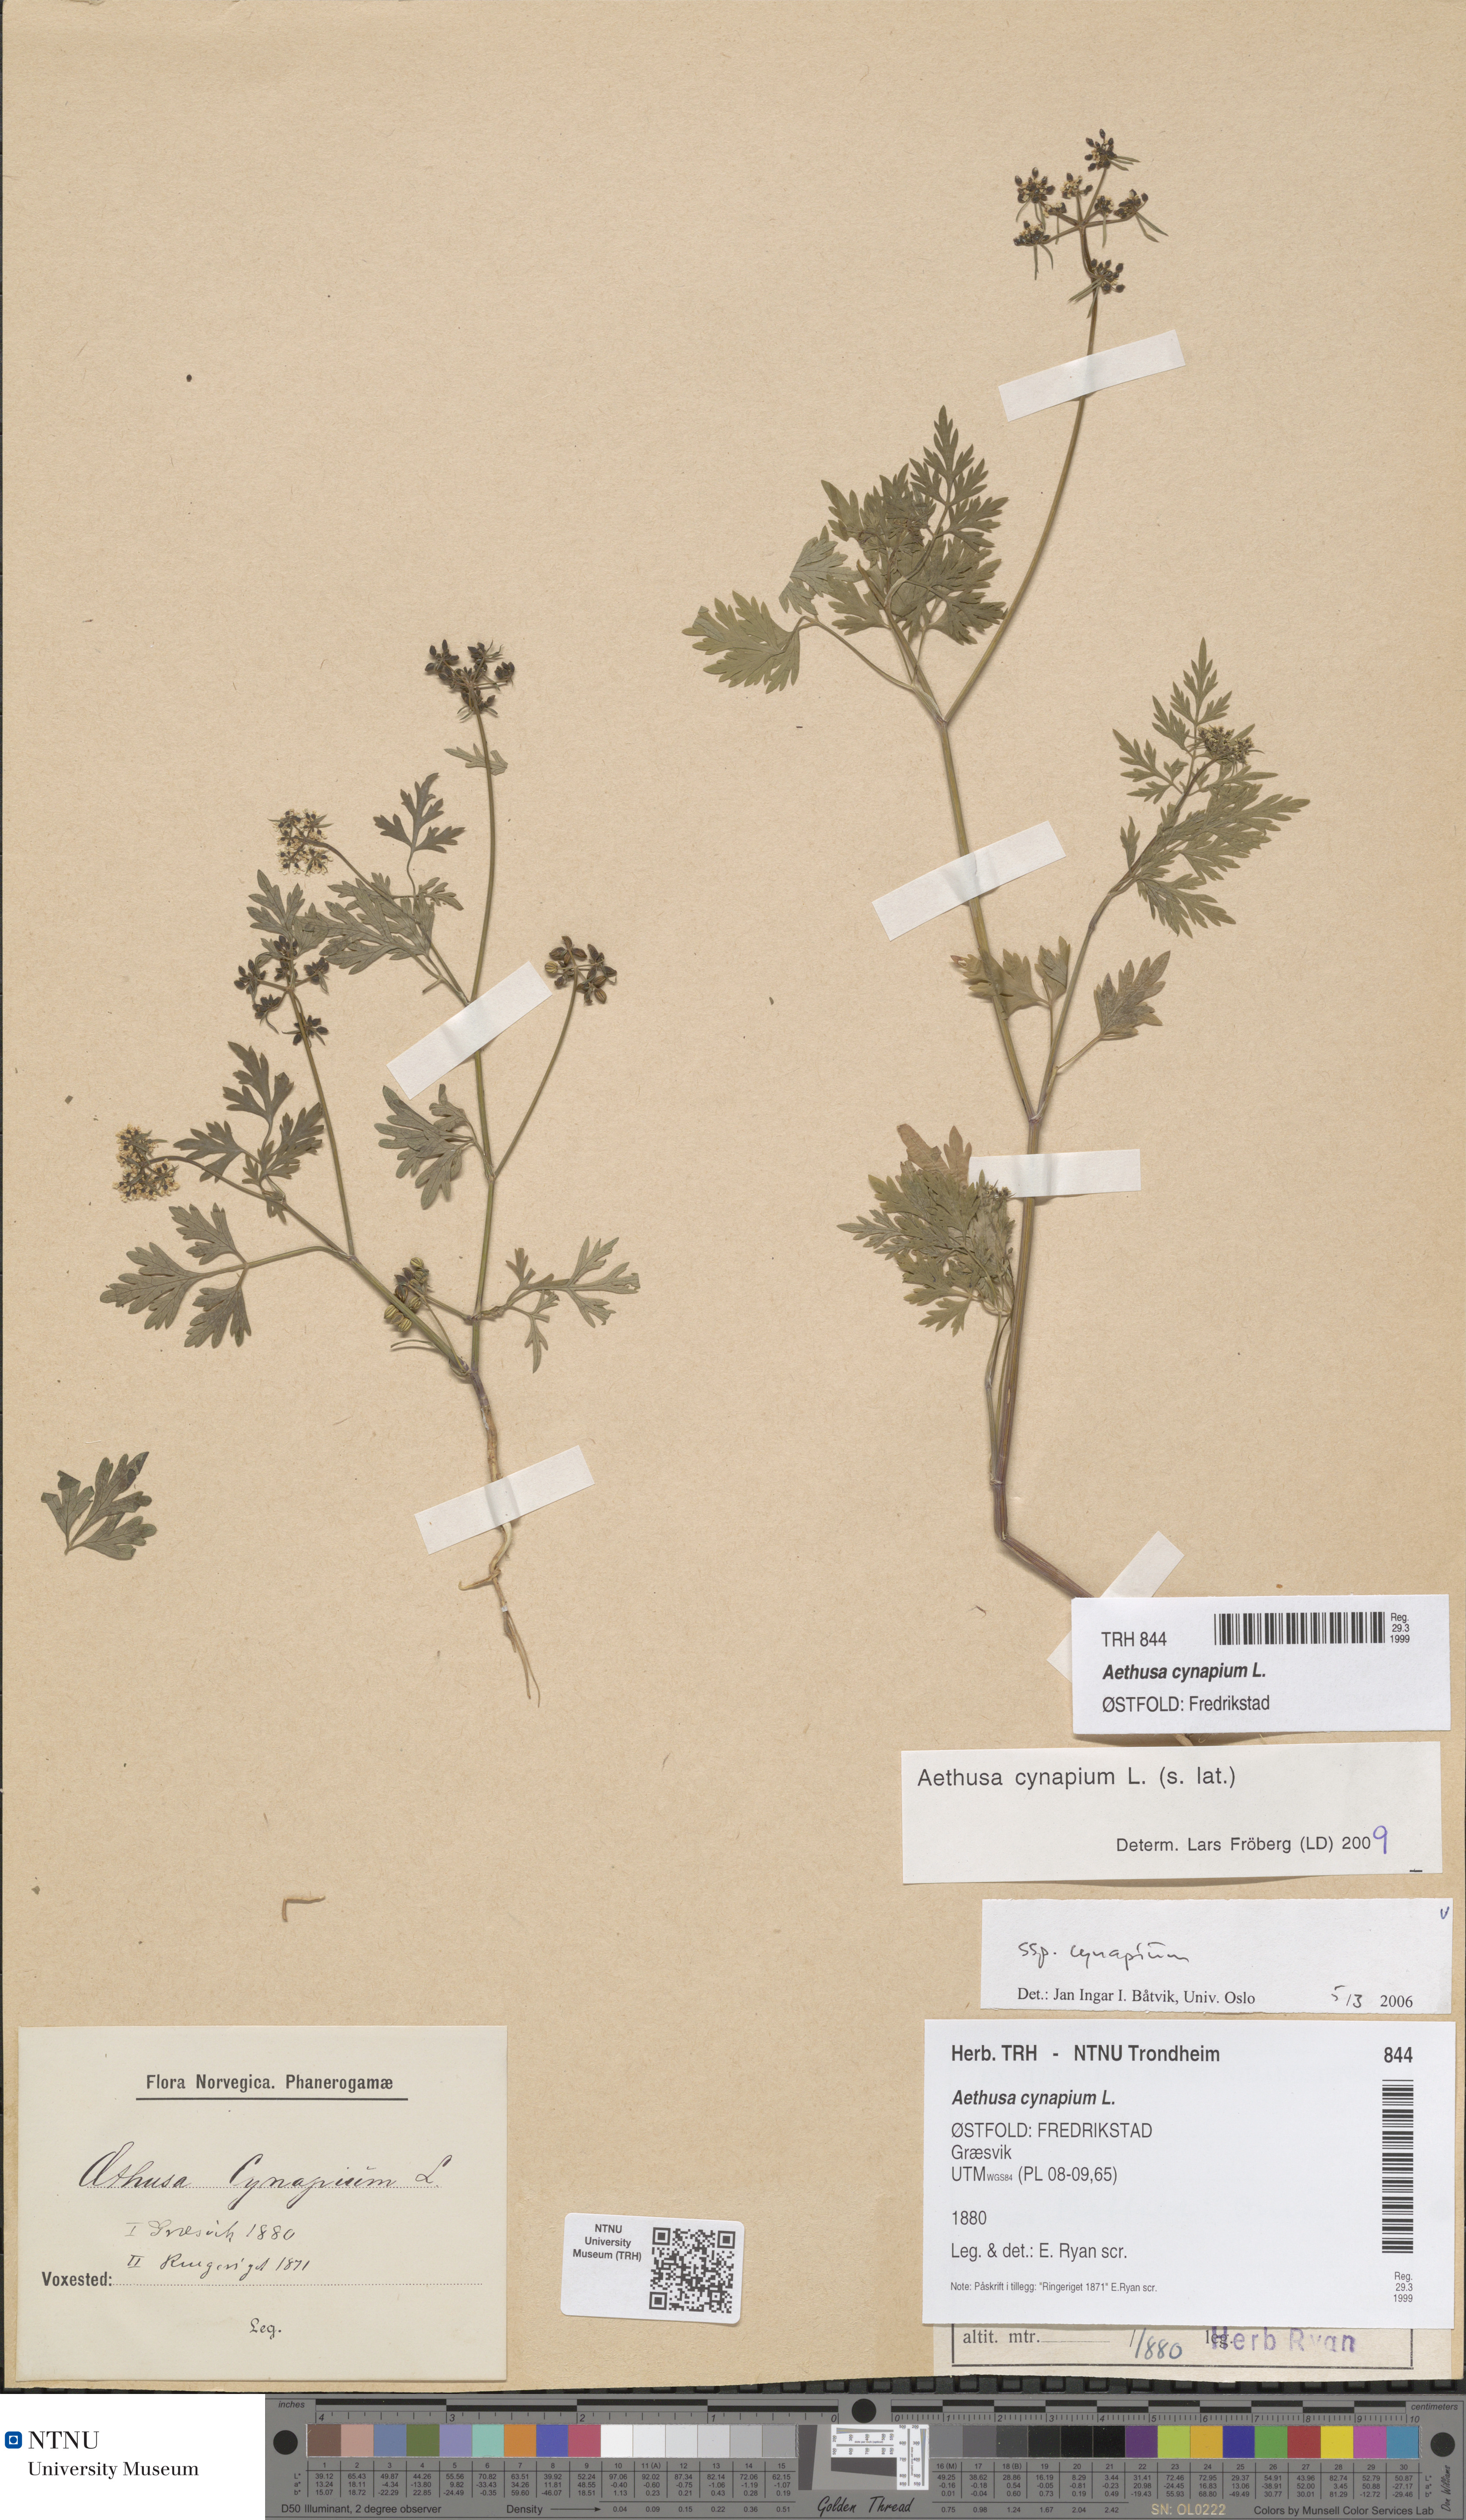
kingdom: Plantae
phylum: Tracheophyta
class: Magnoliopsida
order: Apiales
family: Apiaceae
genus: Aethusa
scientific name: Aethusa cynapium
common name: Fool's parsley
